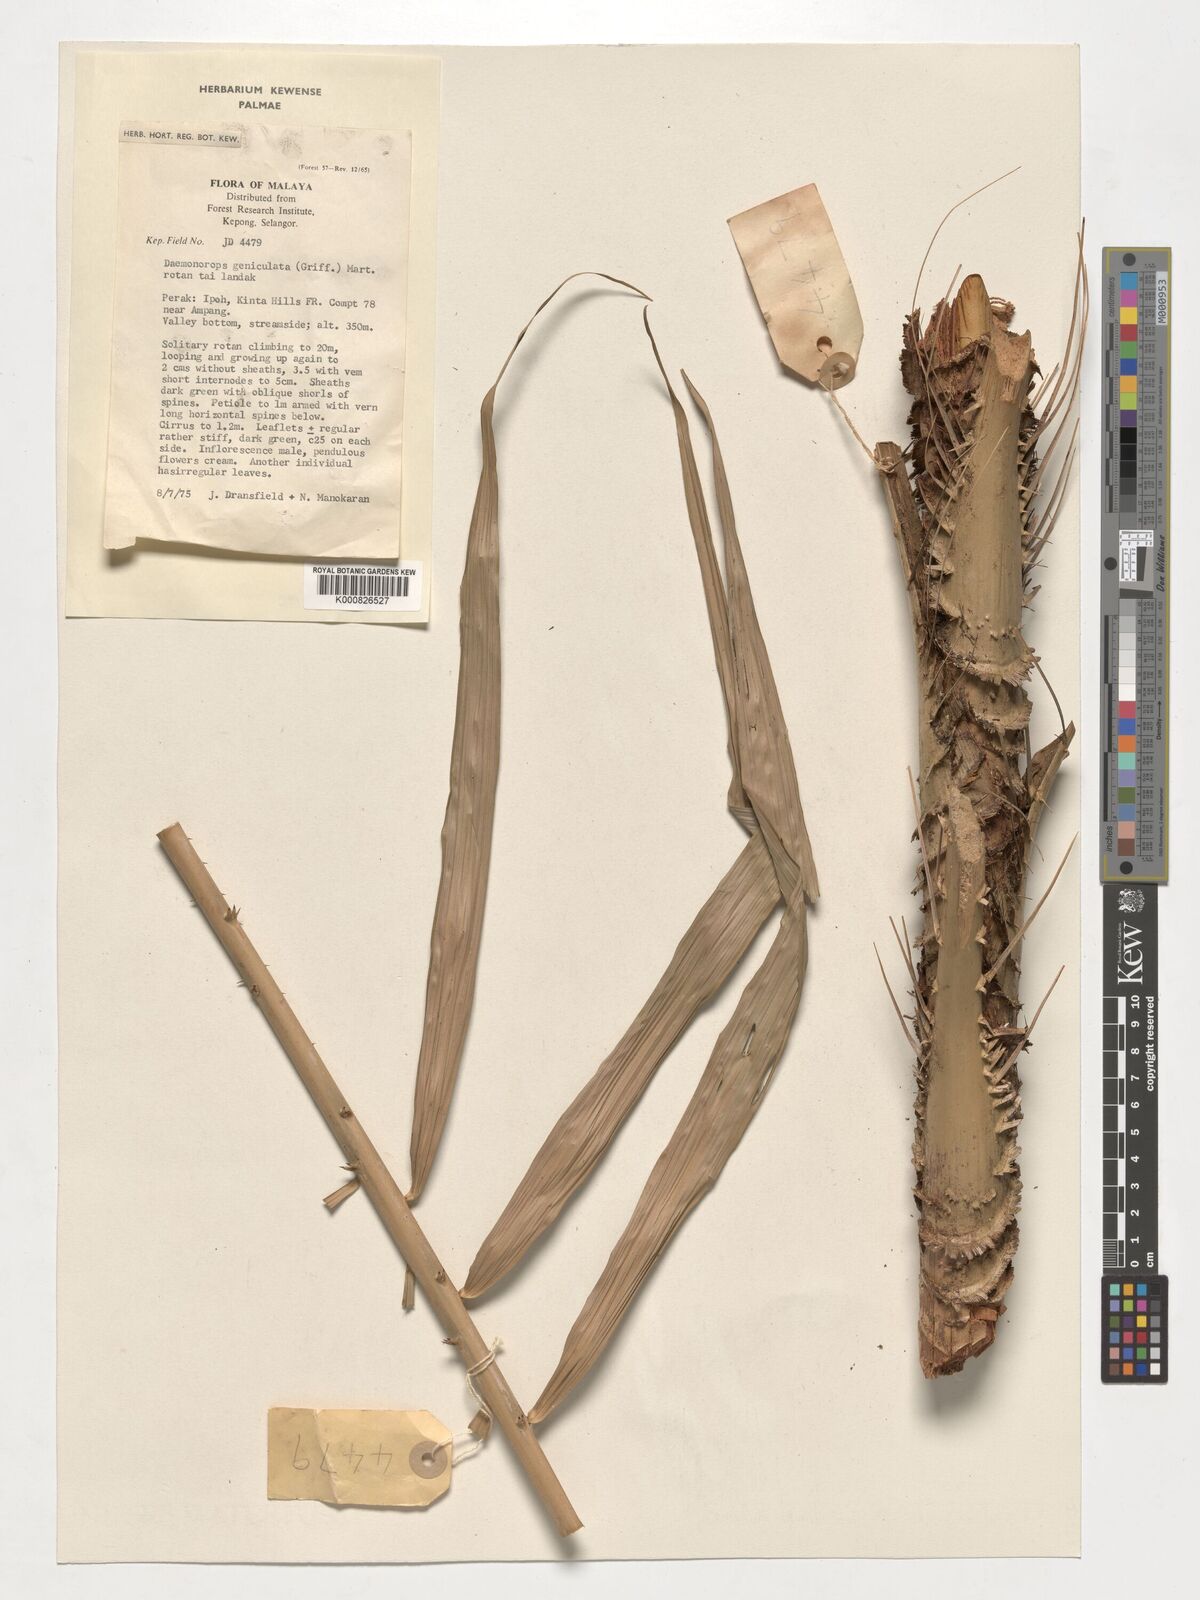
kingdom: Plantae
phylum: Tracheophyta
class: Liliopsida
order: Arecales
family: Arecaceae
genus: Calamus
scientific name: Calamus geniculatus
